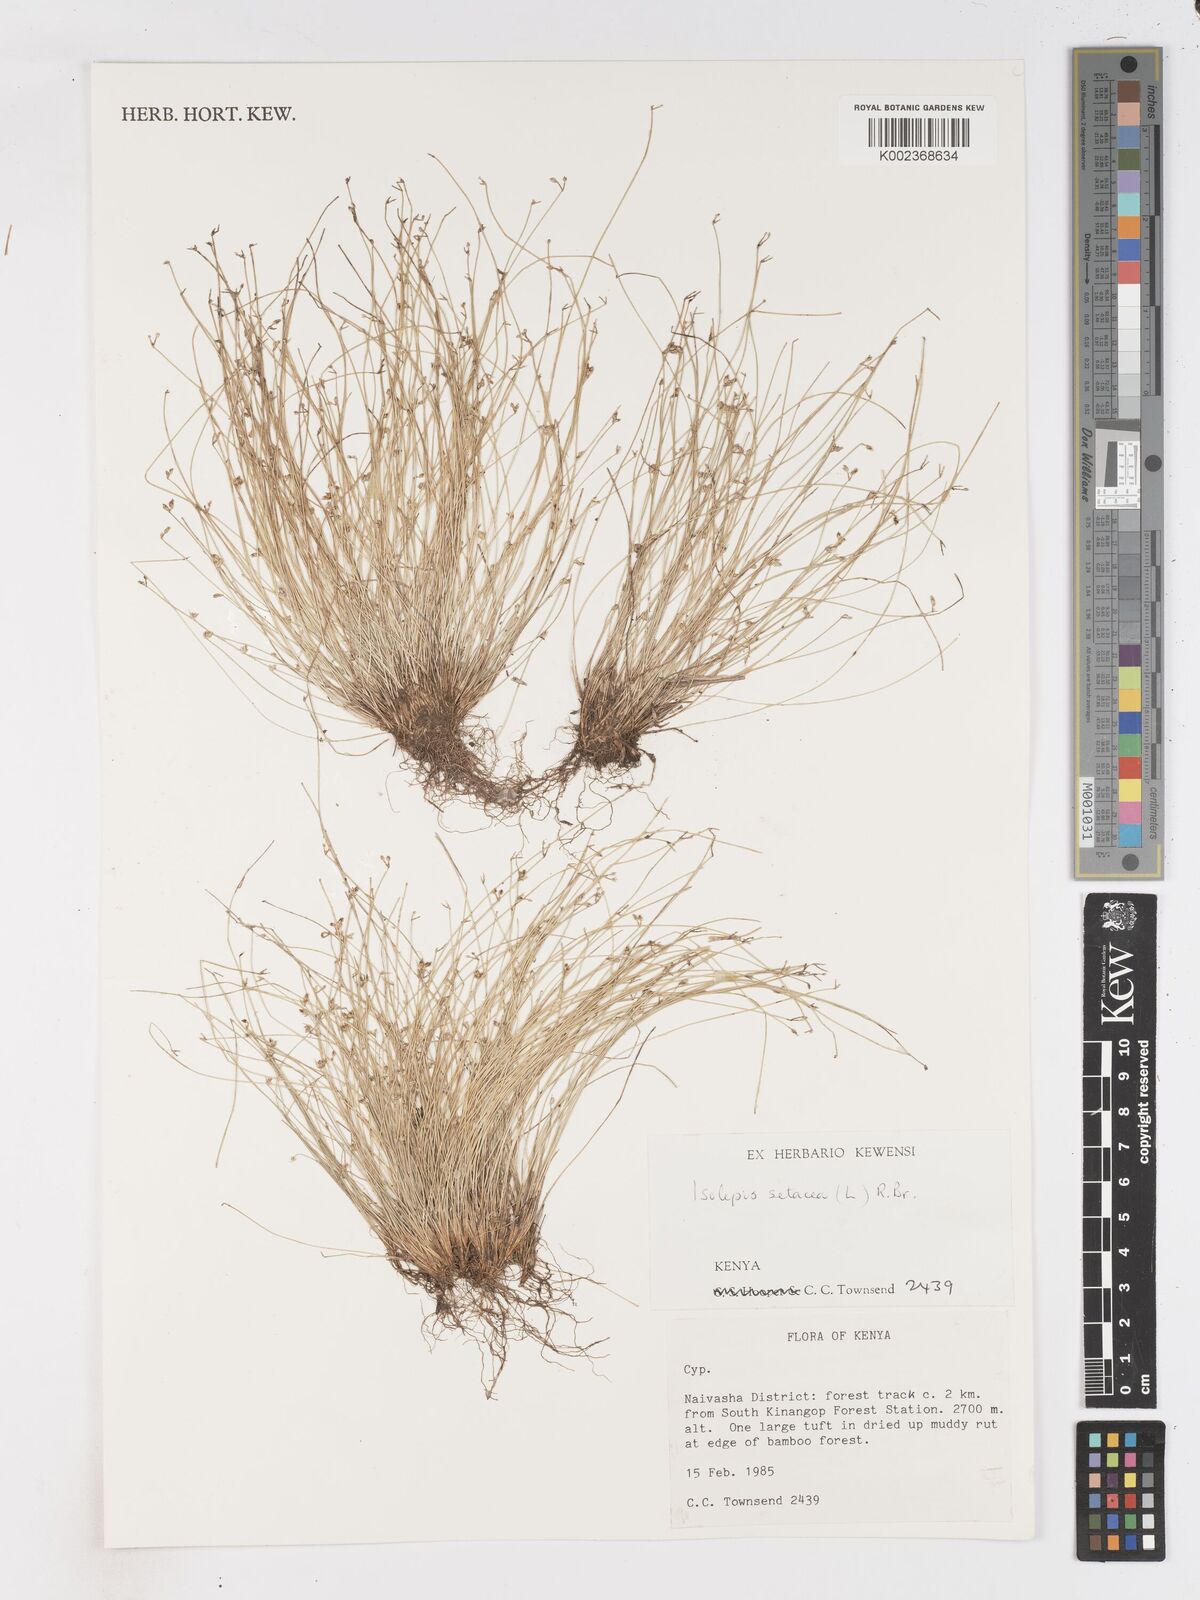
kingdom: Plantae
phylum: Tracheophyta
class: Liliopsida
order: Poales
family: Cyperaceae
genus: Isolepis
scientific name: Isolepis setacea
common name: Bristle club-rush
